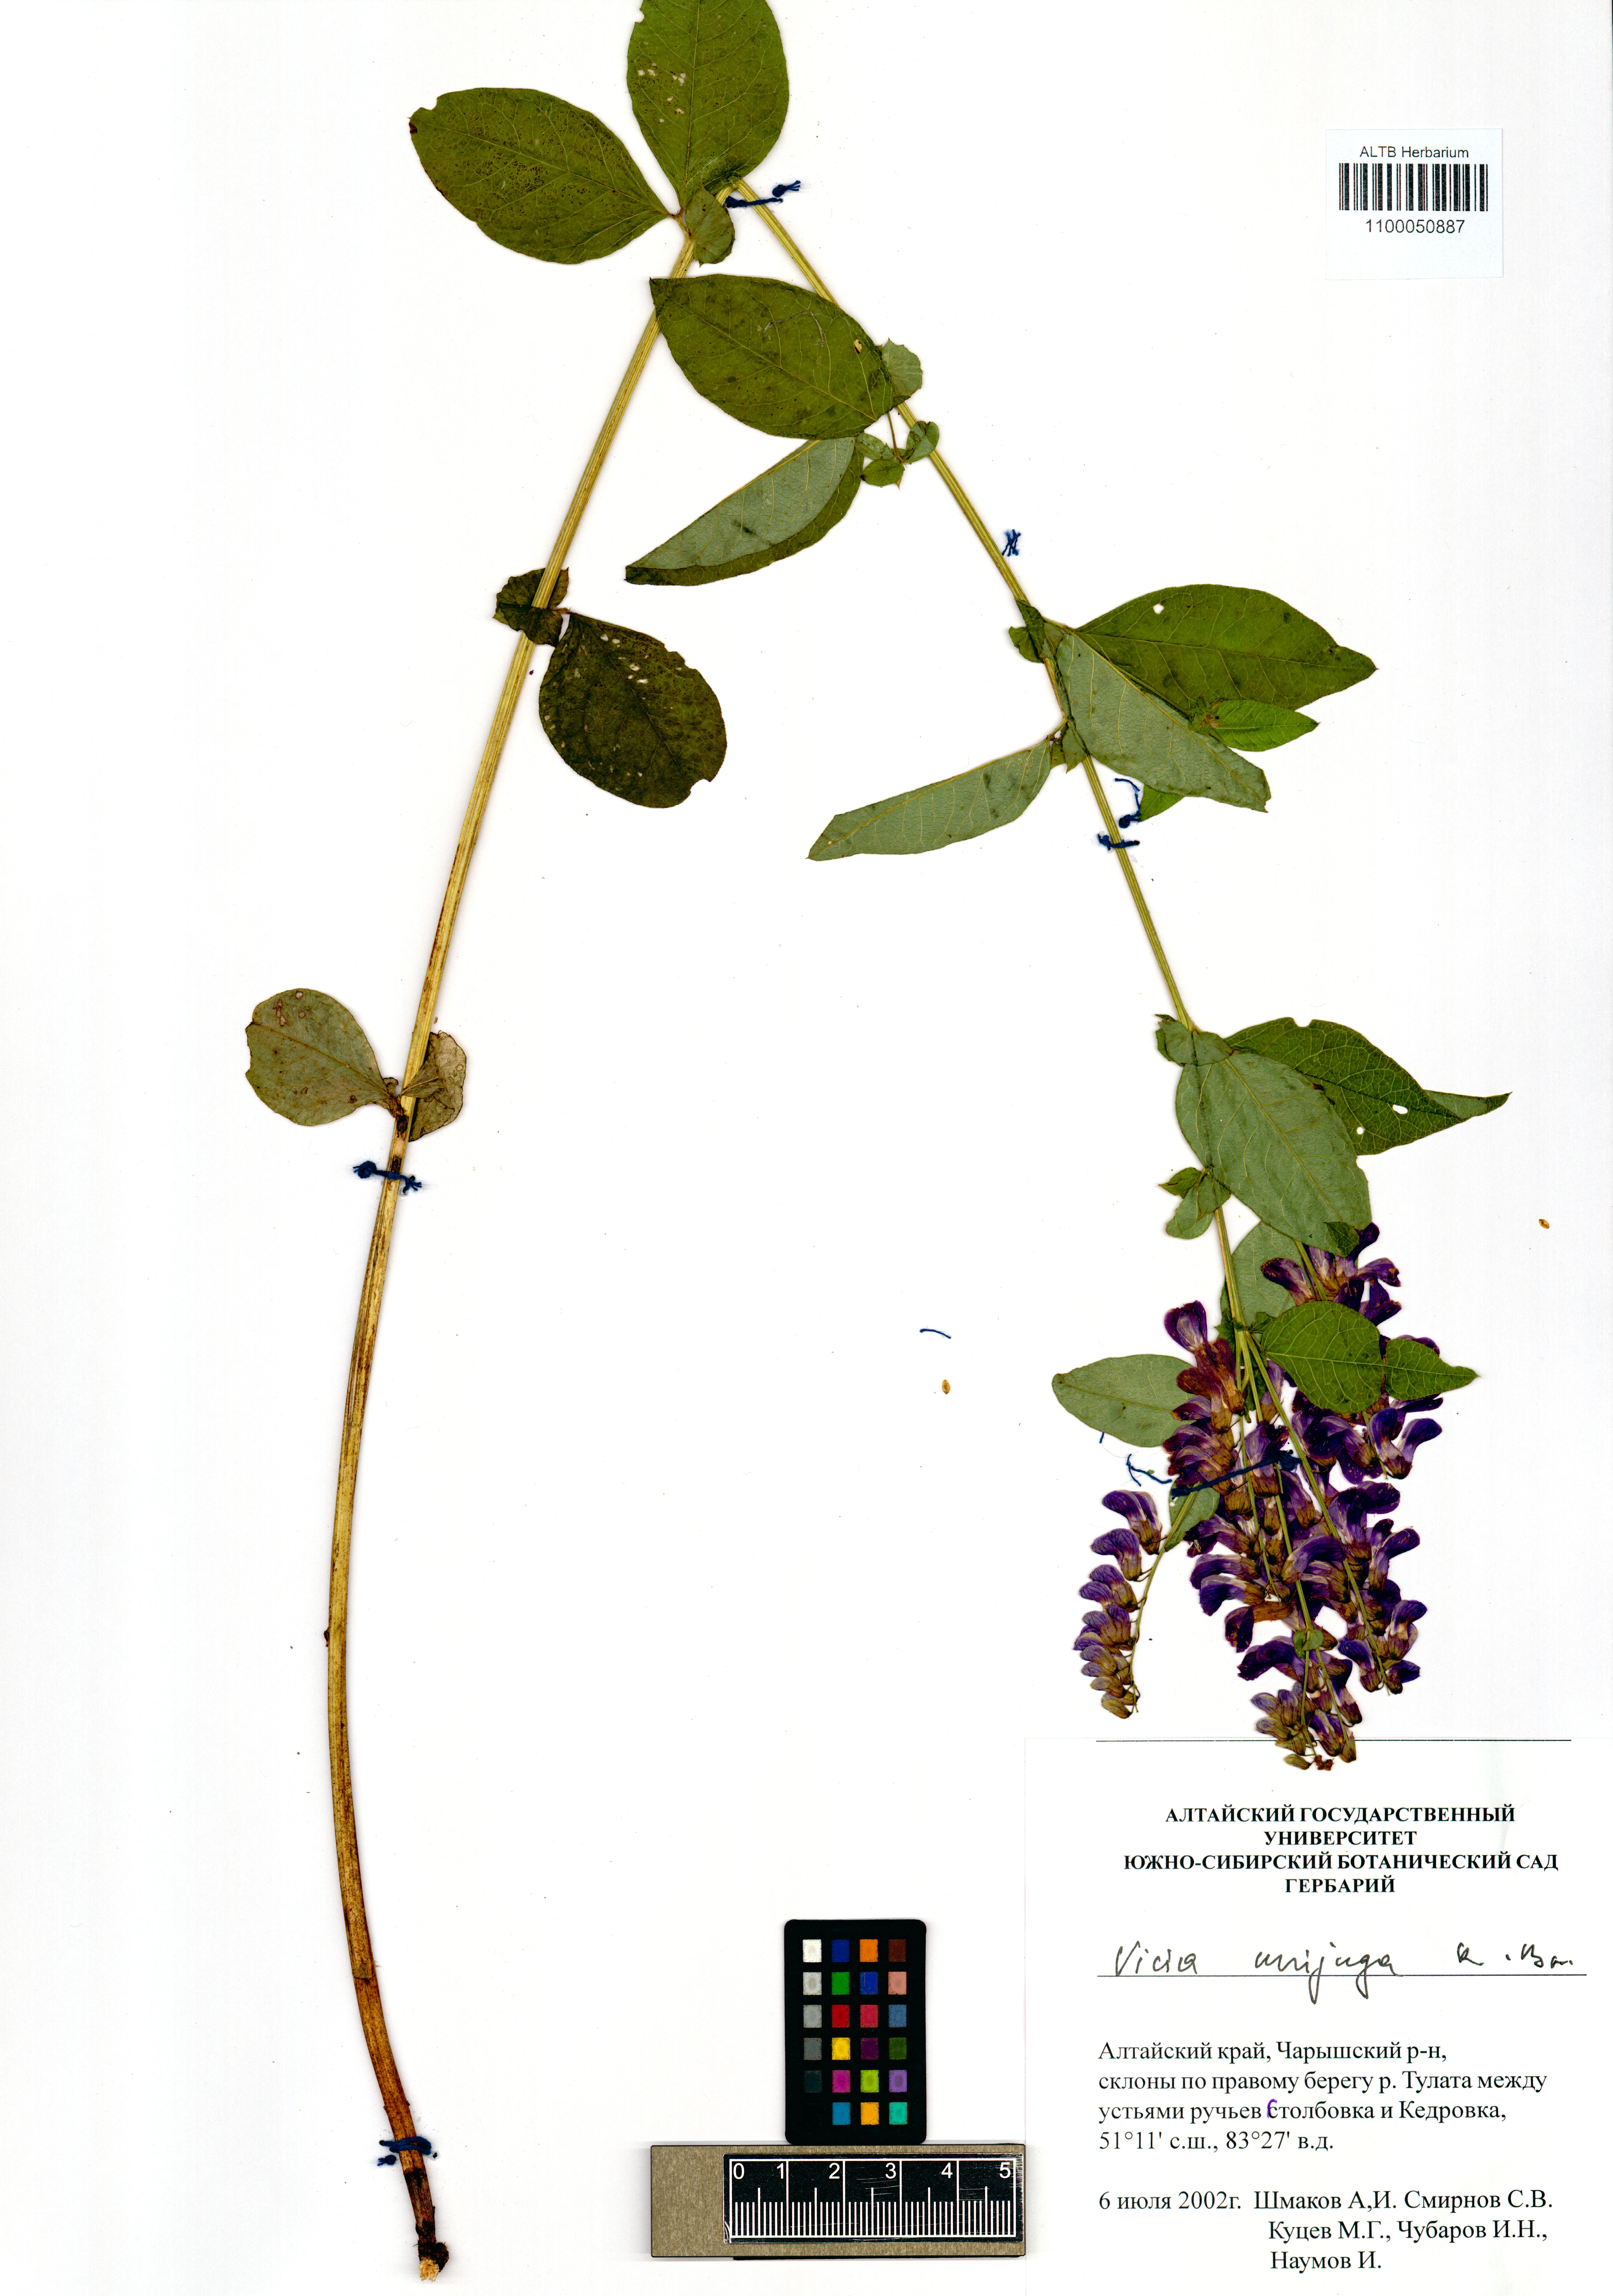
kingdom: Plantae
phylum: Tracheophyta
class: Magnoliopsida
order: Fabales
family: Fabaceae
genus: Vicia
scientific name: Vicia unijuga
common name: Two-leaf vetch
